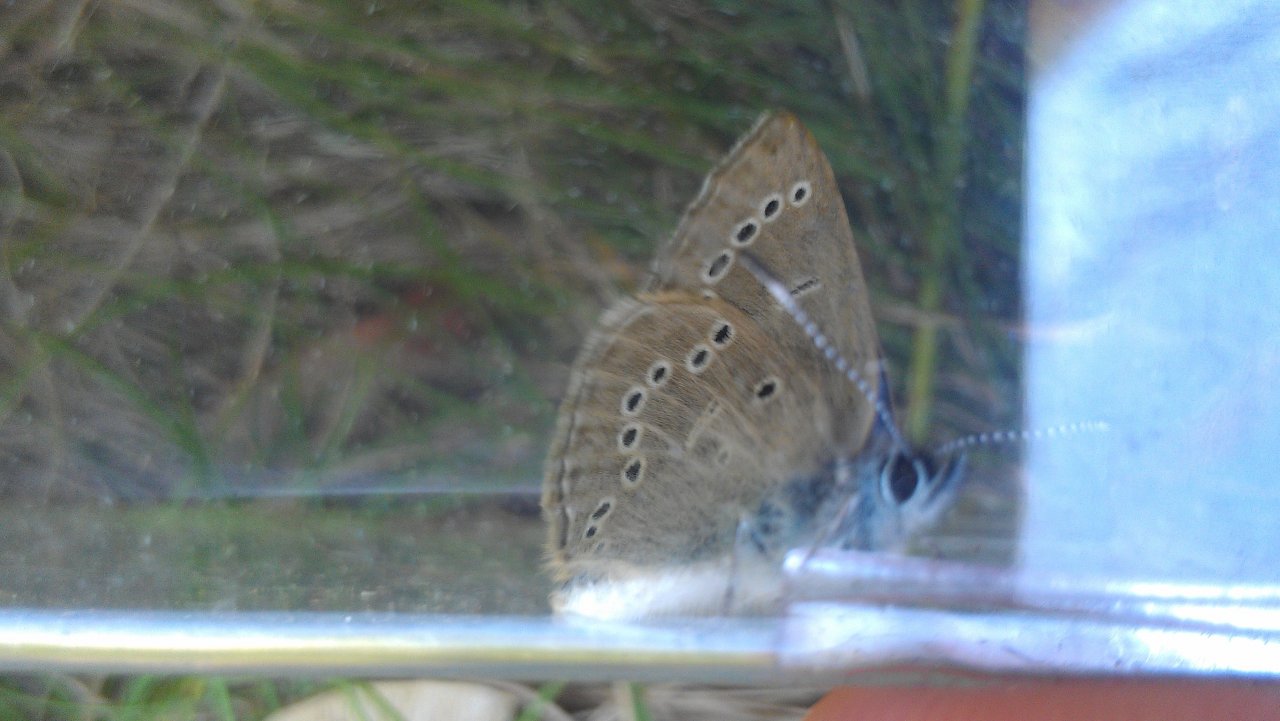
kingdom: Animalia
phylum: Arthropoda
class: Insecta
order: Lepidoptera
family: Lycaenidae
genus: Glaucopsyche
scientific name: Glaucopsyche lygdamus
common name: Silvery Blue
